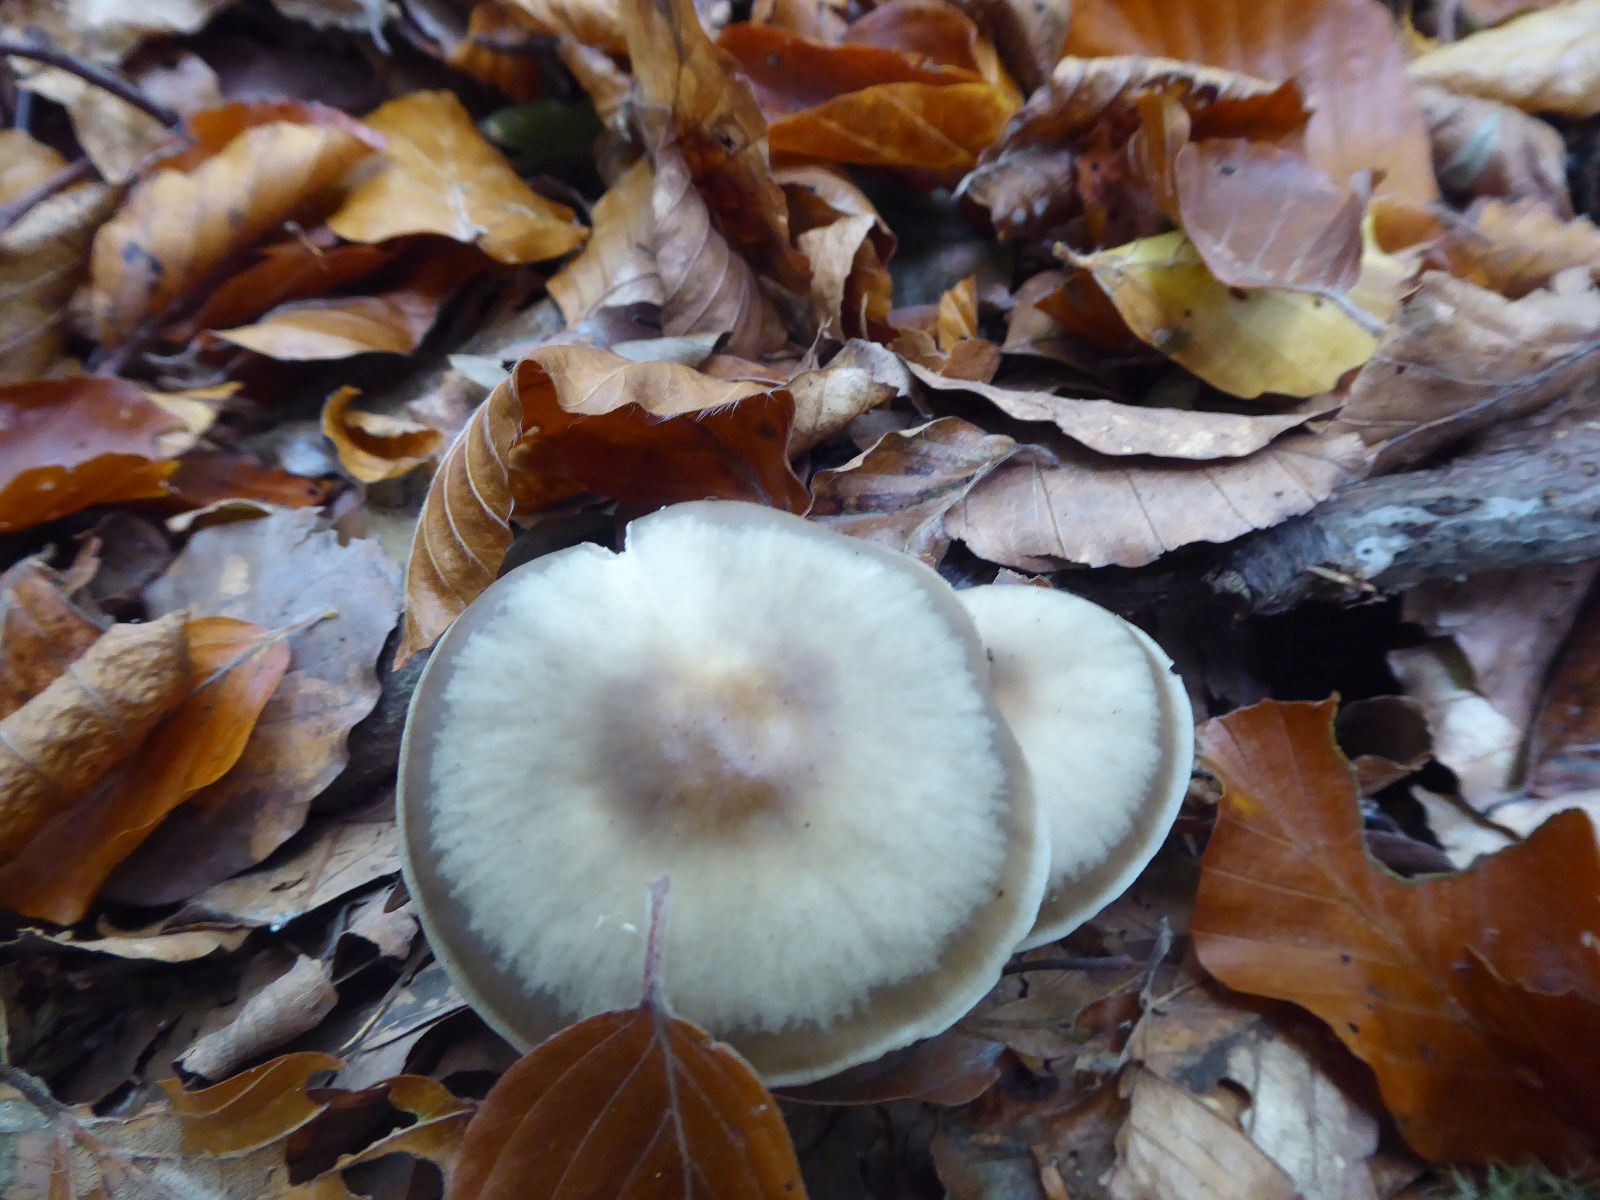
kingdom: Fungi
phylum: Basidiomycota
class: Agaricomycetes
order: Agaricales
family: Omphalotaceae
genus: Rhodocollybia
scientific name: Rhodocollybia asema
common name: horngrå fladhat
